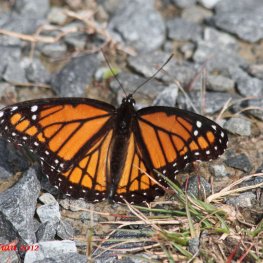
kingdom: Animalia
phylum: Arthropoda
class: Insecta
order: Lepidoptera
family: Nymphalidae
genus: Limenitis
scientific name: Limenitis archippus
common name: Viceroy
